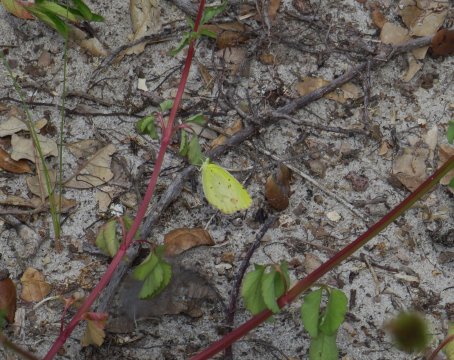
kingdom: Animalia
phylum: Arthropoda
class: Insecta
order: Lepidoptera
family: Pieridae
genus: Pyrisitia
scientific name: Pyrisitia lisa
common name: Little Yellow
